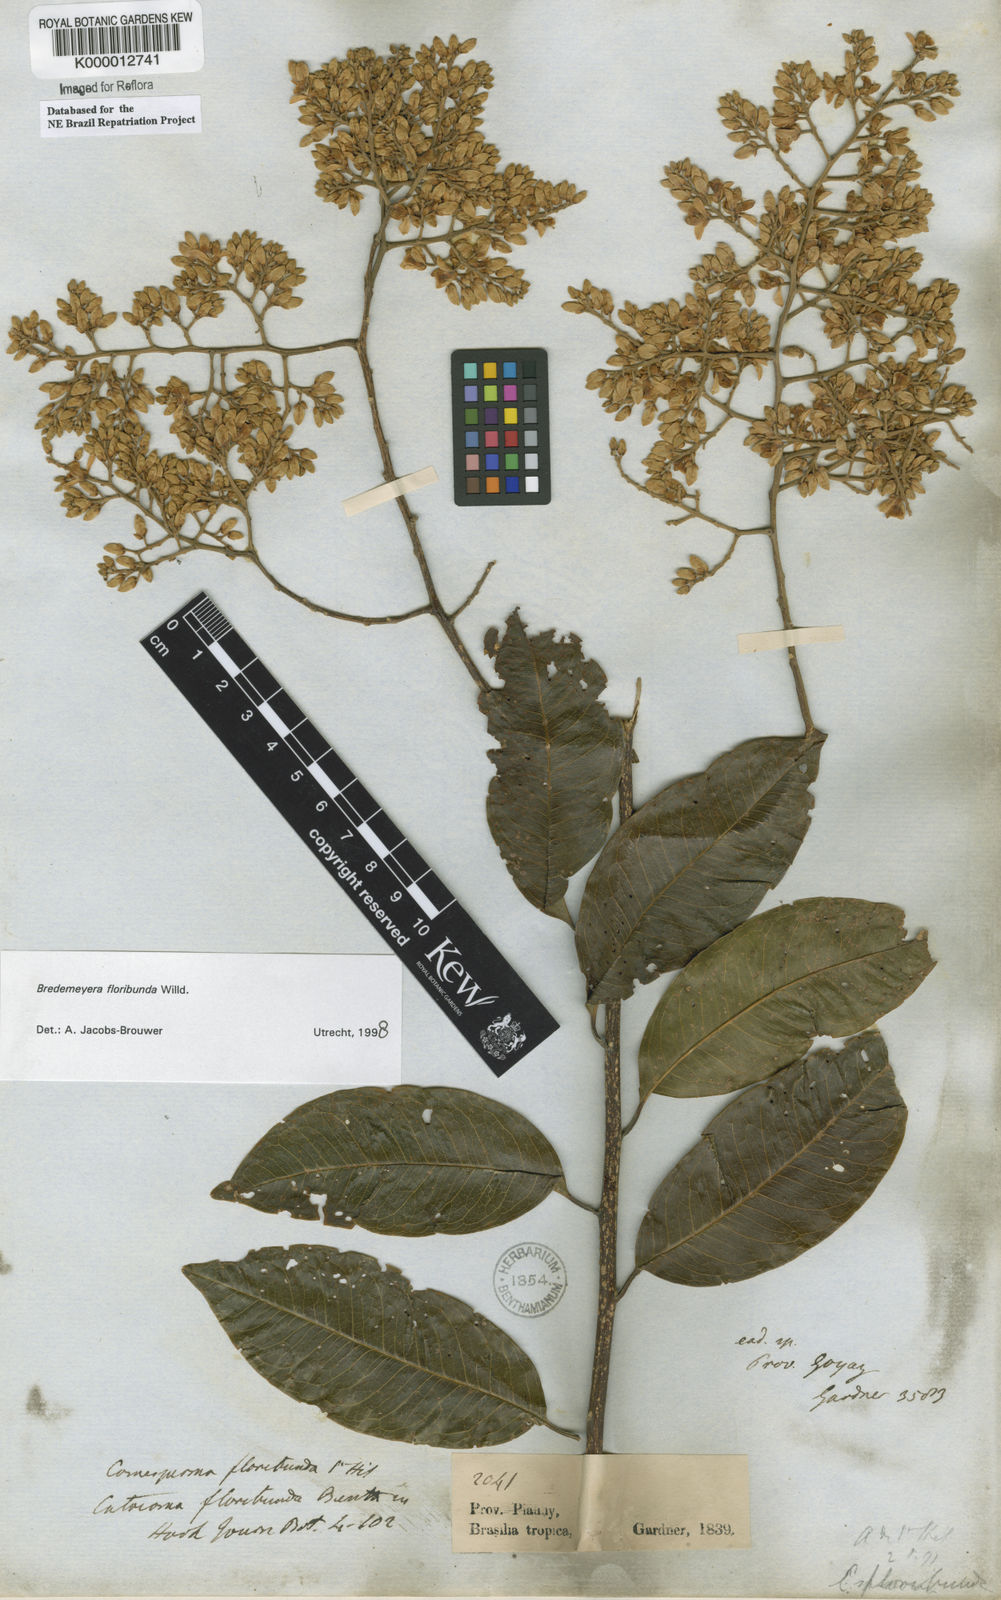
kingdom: Plantae
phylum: Tracheophyta
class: Magnoliopsida
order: Fabales
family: Polygalaceae
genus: Bredemeyera
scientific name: Bredemeyera floribunda
